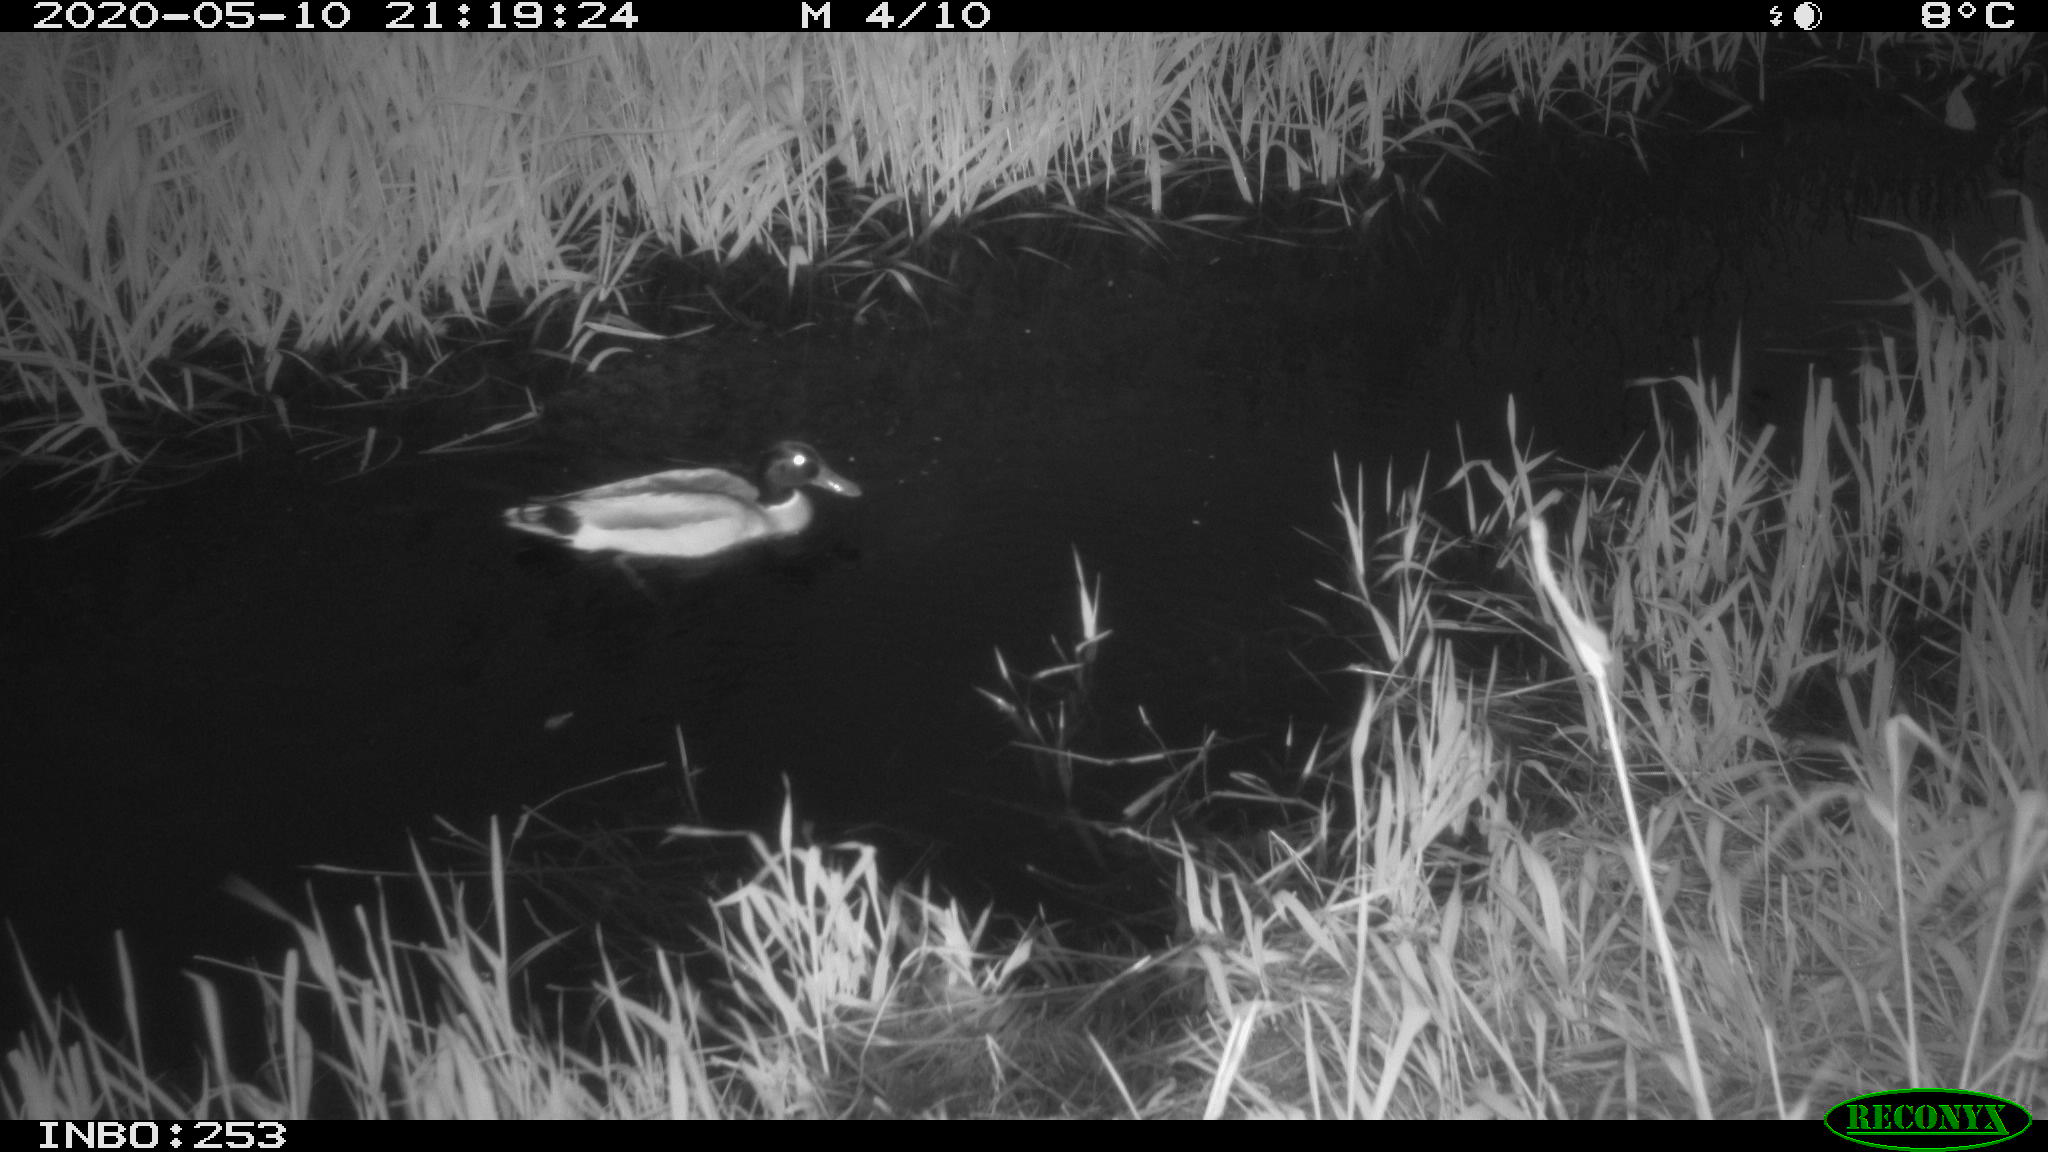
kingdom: Animalia
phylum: Chordata
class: Aves
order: Anseriformes
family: Anatidae
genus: Anas
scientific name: Anas platyrhynchos
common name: Mallard
